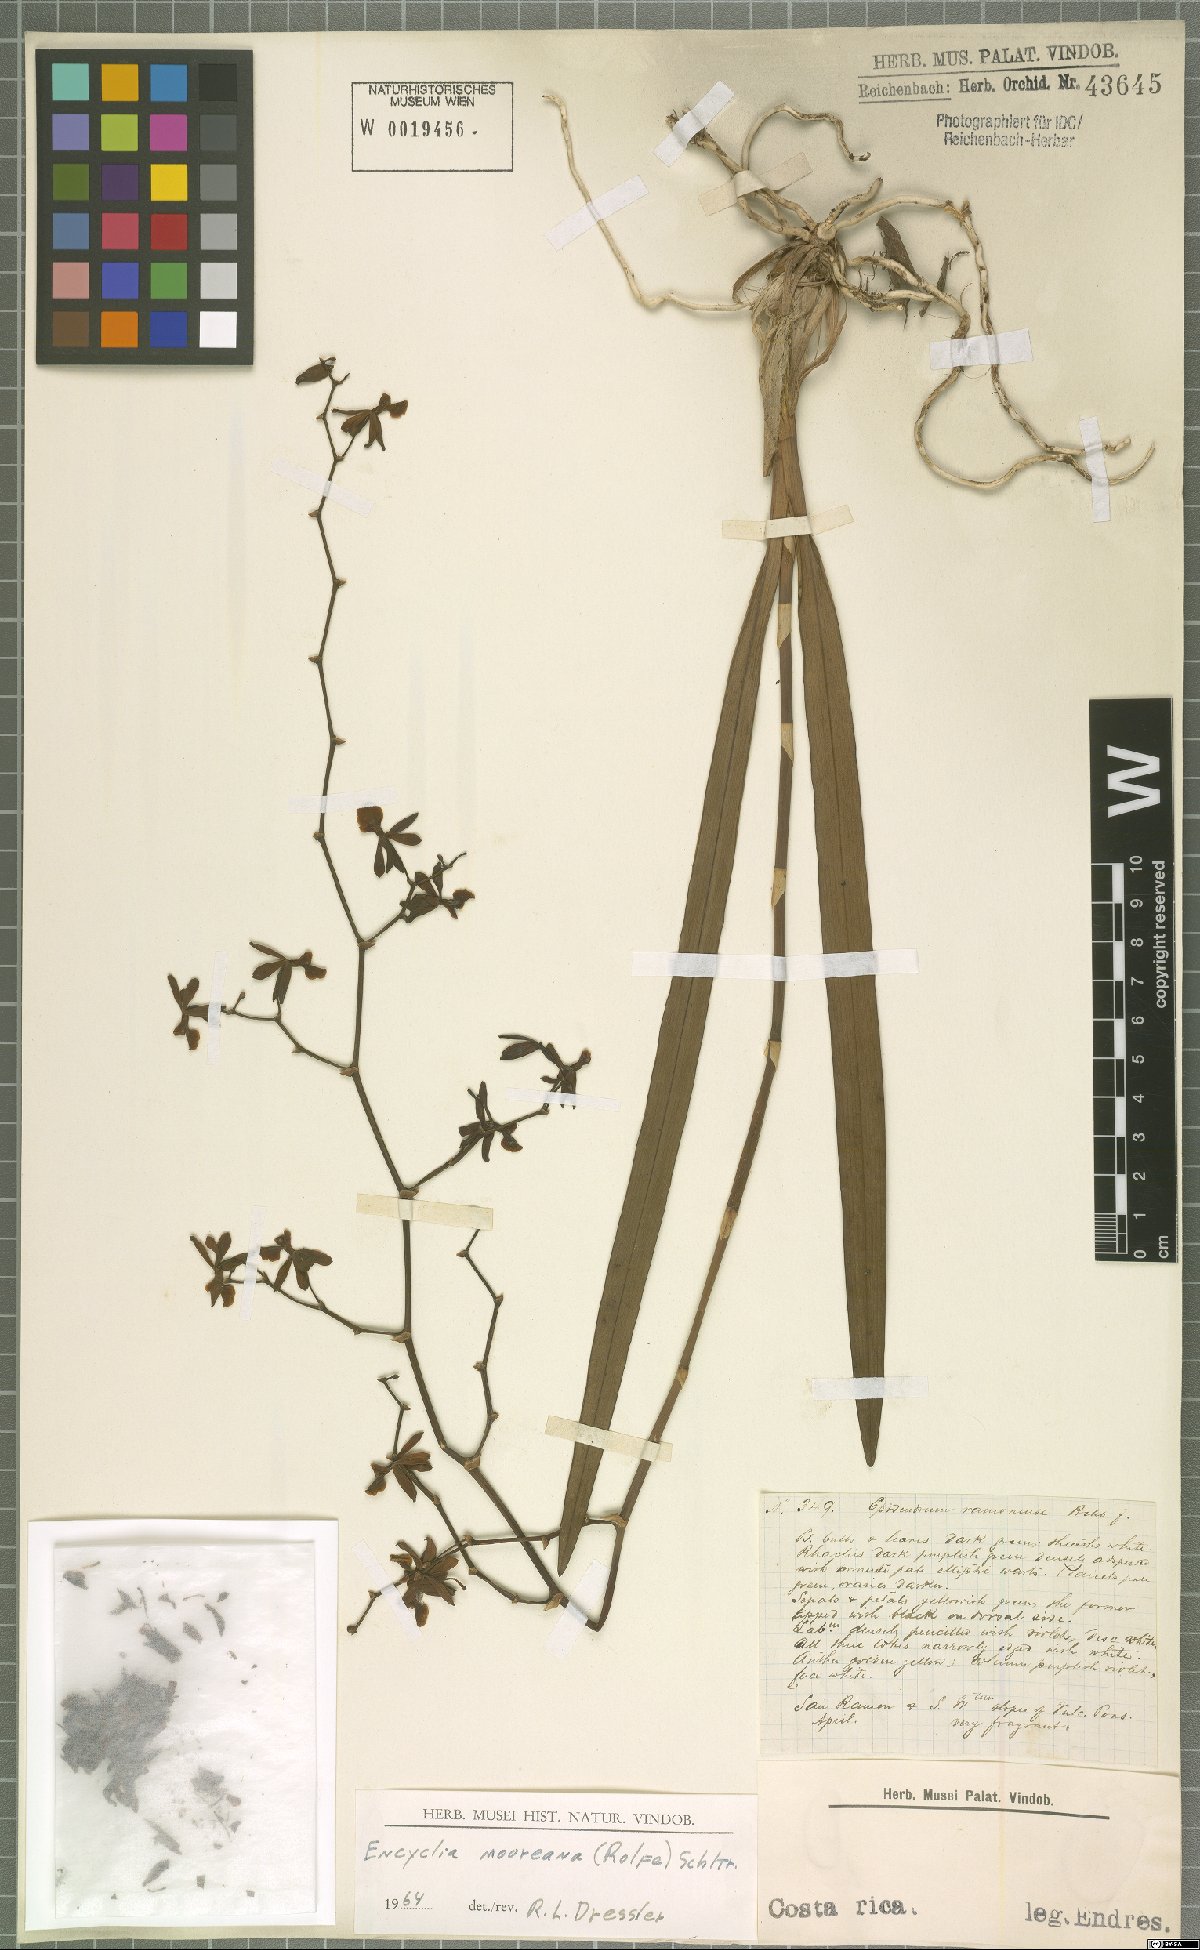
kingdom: Plantae
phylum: Tracheophyta
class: Liliopsida
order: Asparagales
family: Orchidaceae
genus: Encyclia
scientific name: Encyclia mooreana
